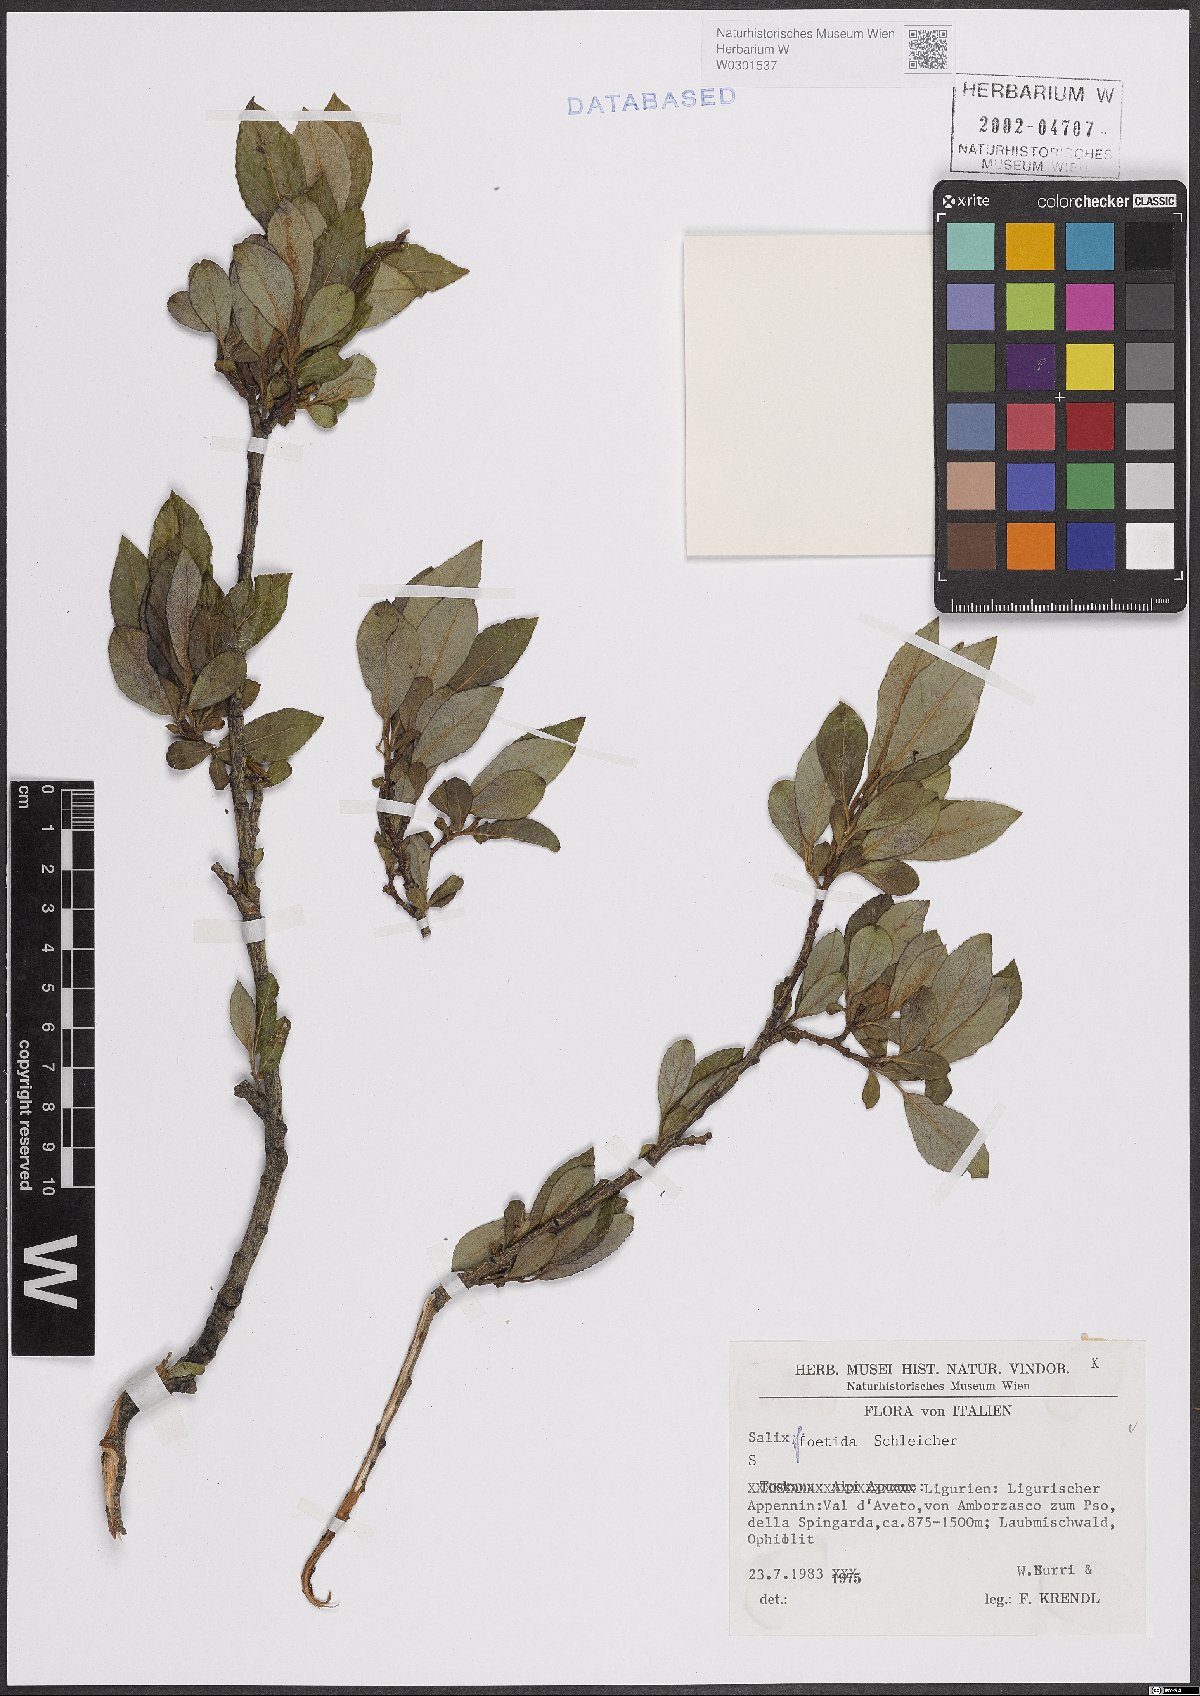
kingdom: Plantae
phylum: Tracheophyta
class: Magnoliopsida
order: Malpighiales
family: Salicaceae
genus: Salix
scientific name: Salix foetida
